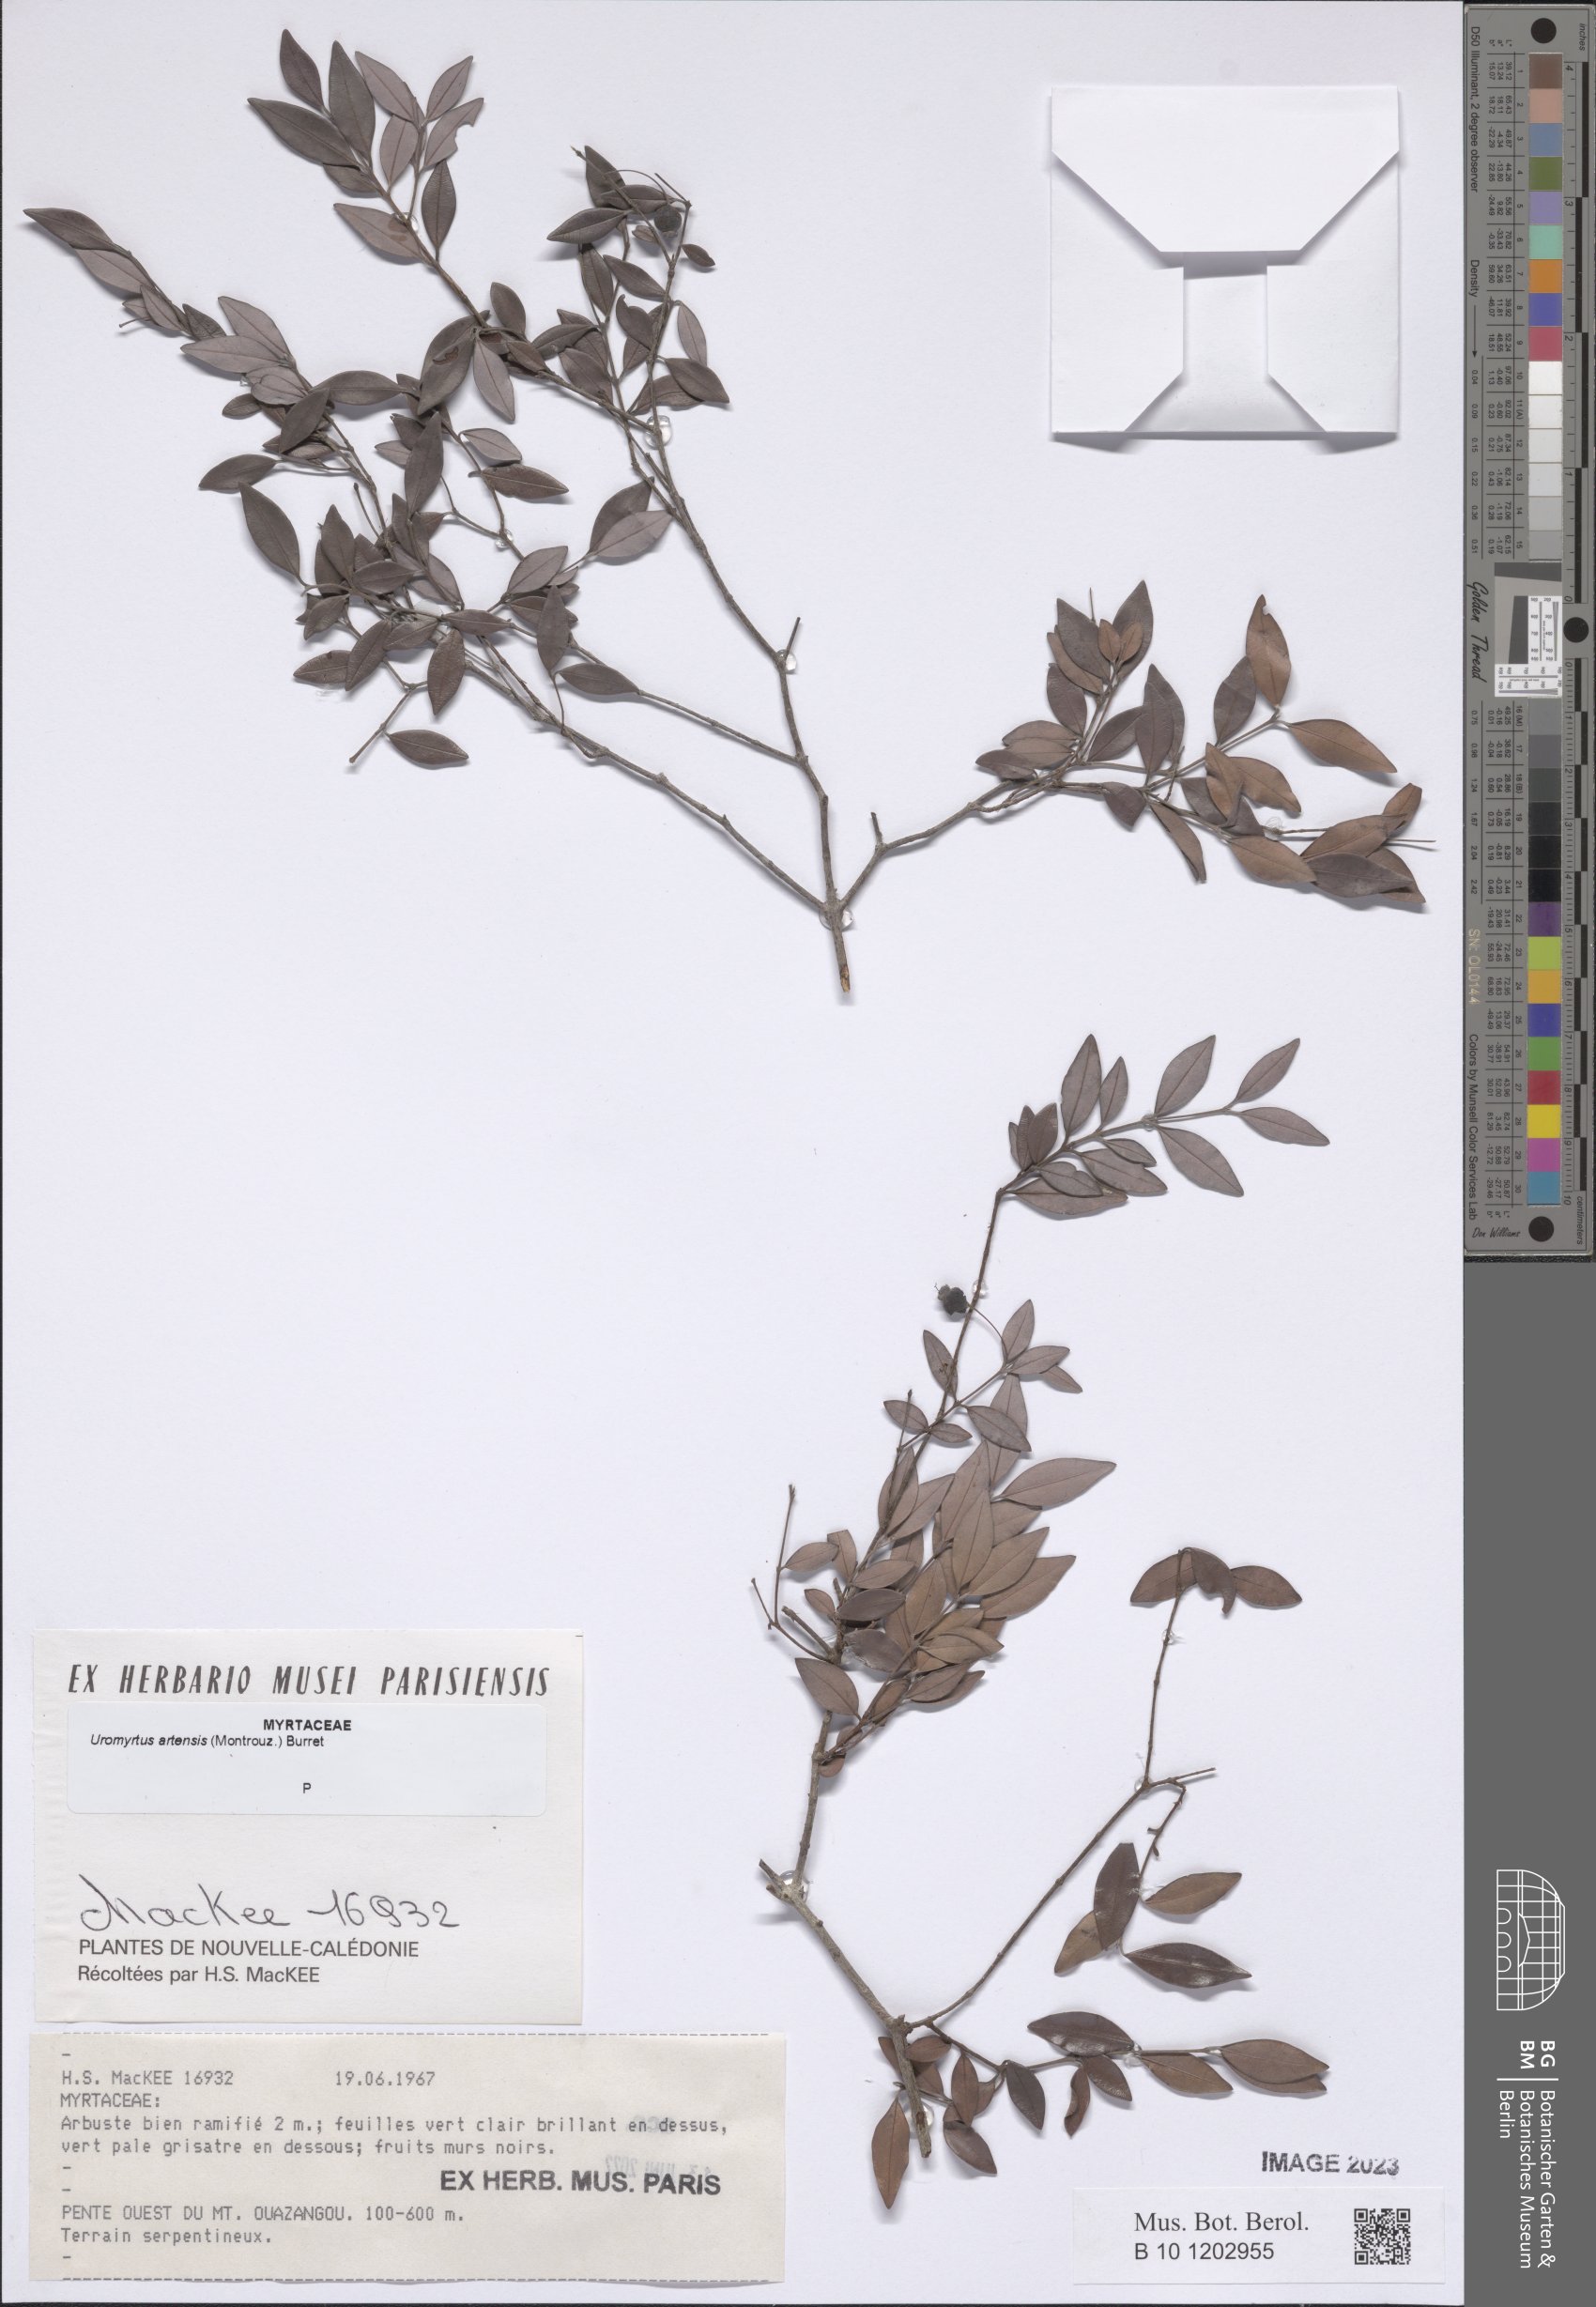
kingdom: Plantae
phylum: Tracheophyta
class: Magnoliopsida
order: Myrtales
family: Myrtaceae
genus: Uromyrtus
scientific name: Uromyrtus artensis
